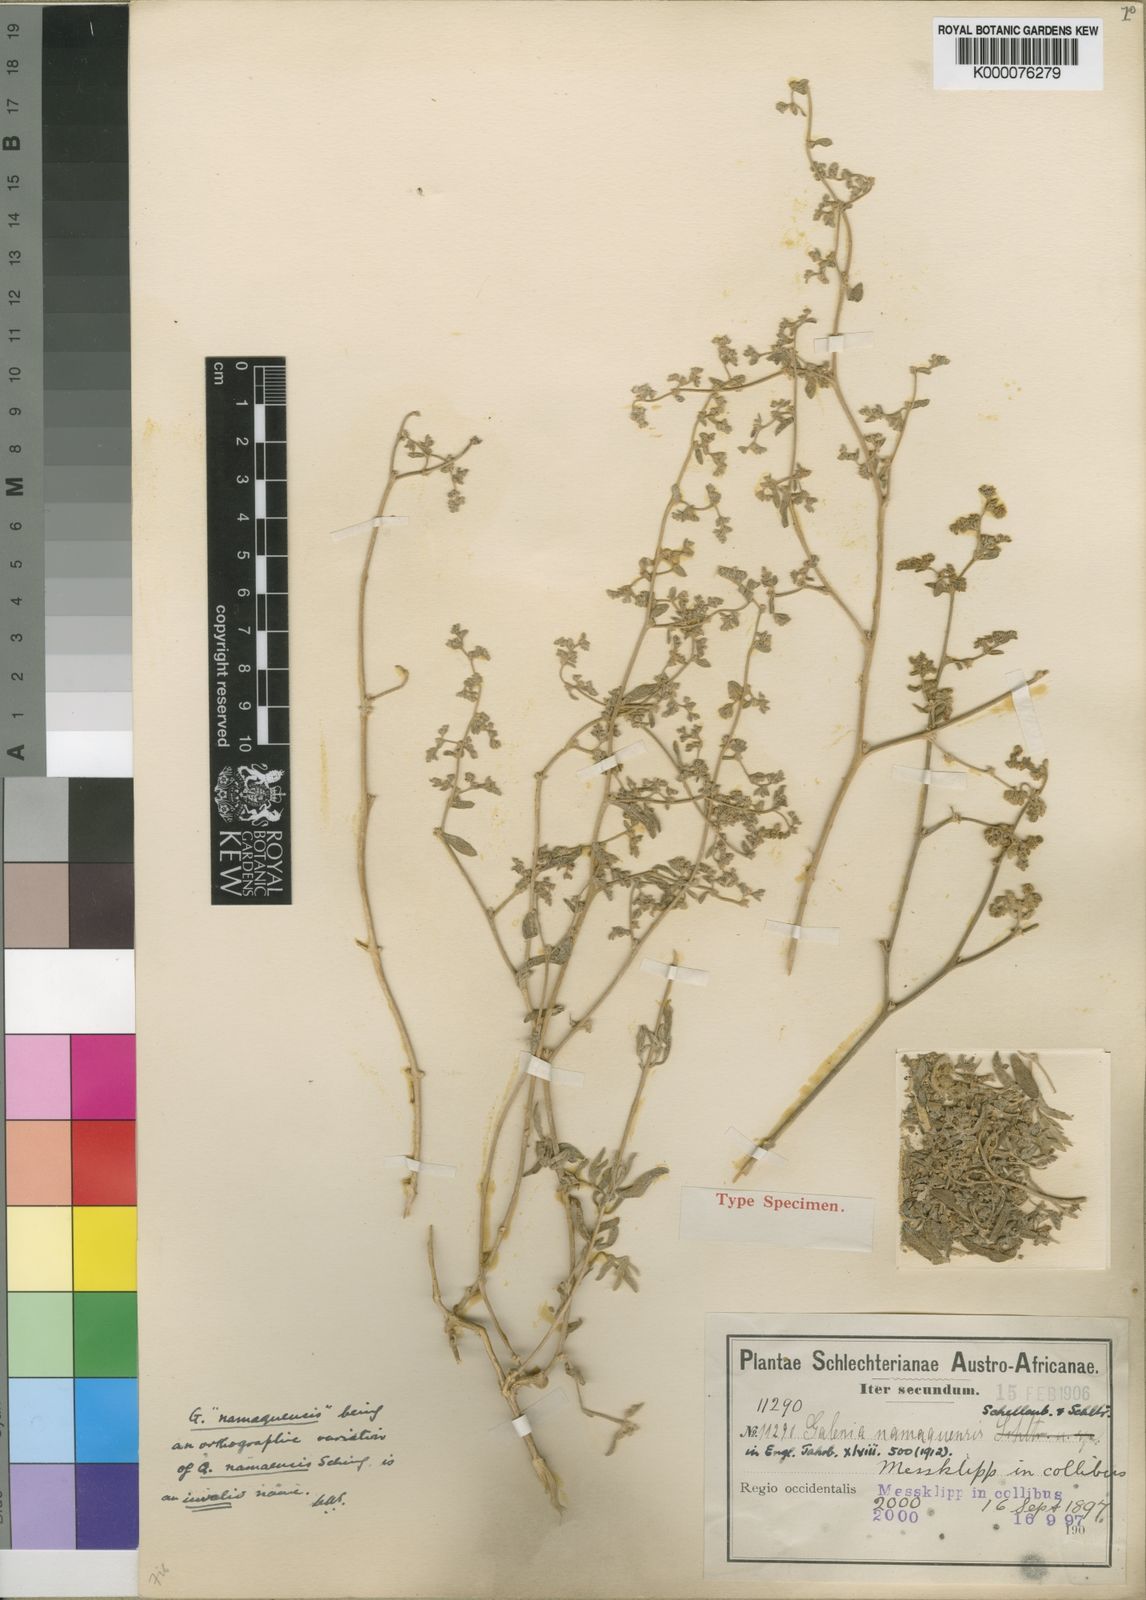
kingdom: Plantae
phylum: Tracheophyta
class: Magnoliopsida
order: Caryophyllales
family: Aizoaceae
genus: Aizoon
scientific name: Aizoon crystallinum
